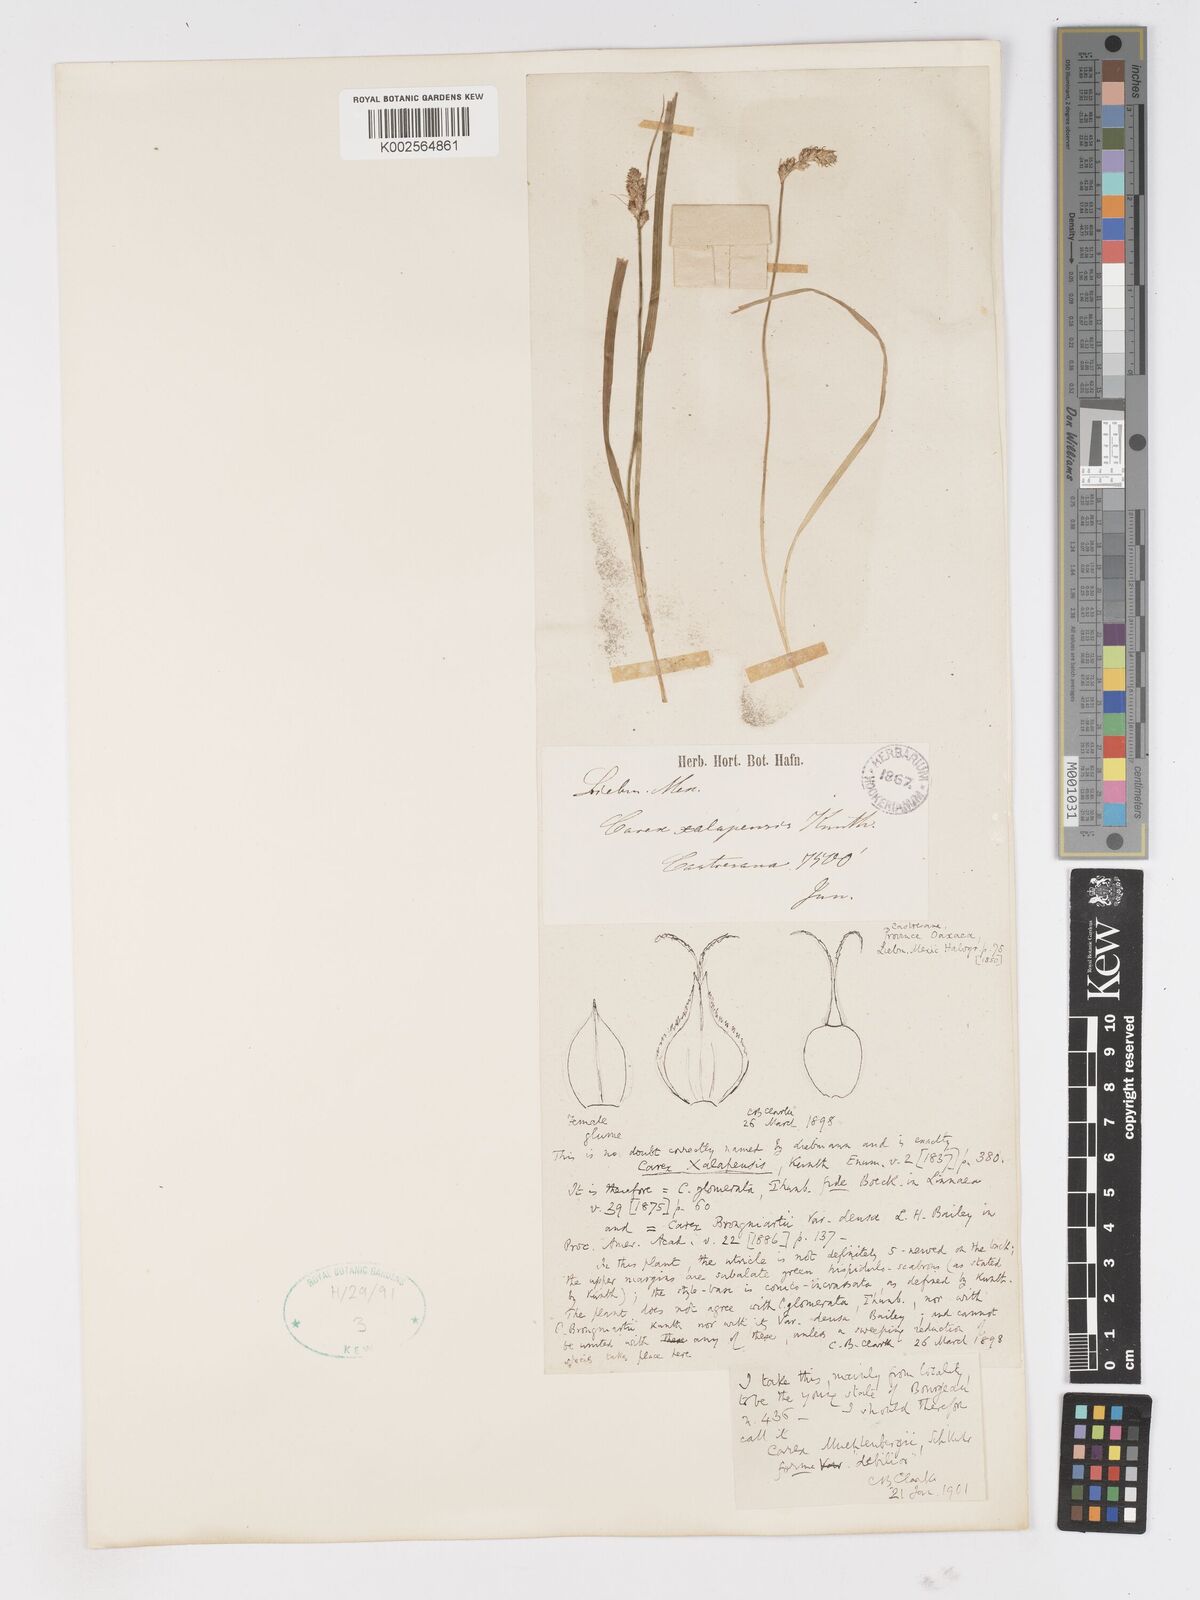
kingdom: Plantae
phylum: Tracheophyta
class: Liliopsida
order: Poales
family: Cyperaceae
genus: Carex
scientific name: Carex vulpinoidea
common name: American fox-sedge
